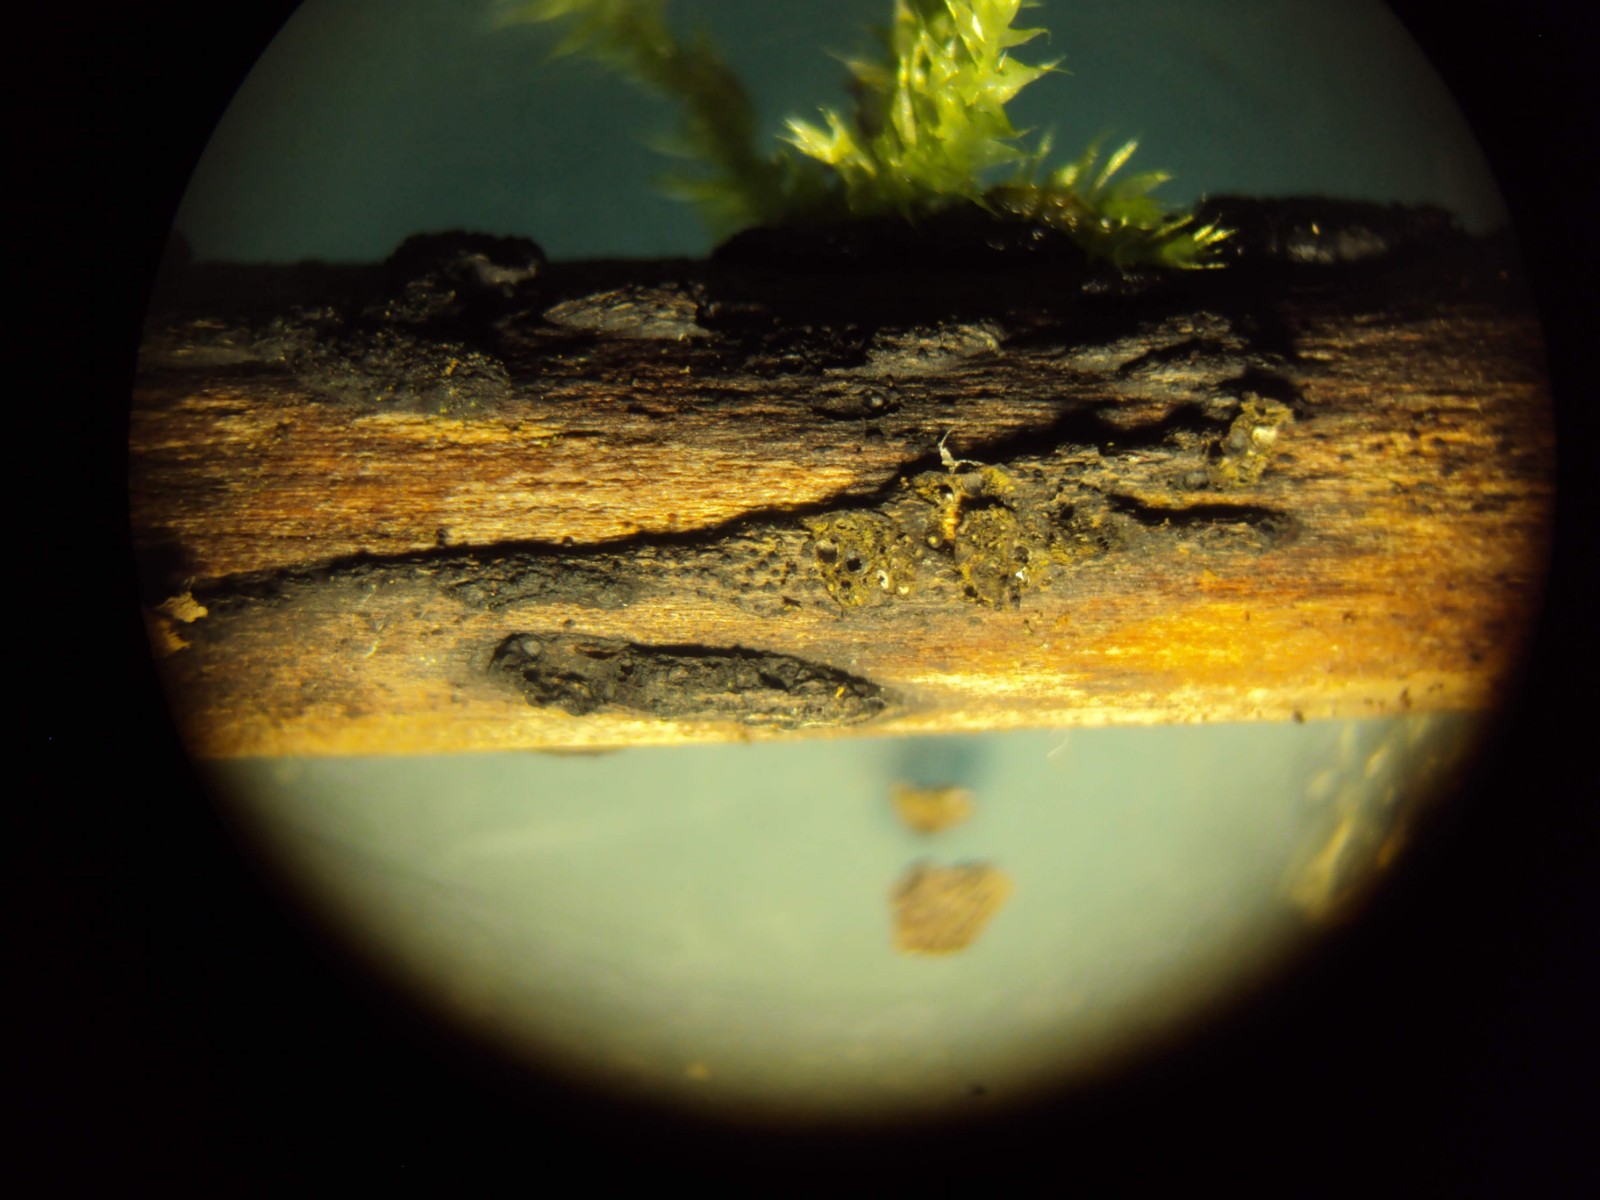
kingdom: Fungi
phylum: Ascomycota
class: Sordariomycetes
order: Xylariales
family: Diatrypaceae
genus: Eutypa
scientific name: Eutypa flavovirens
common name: grønkødet kulskorpe
